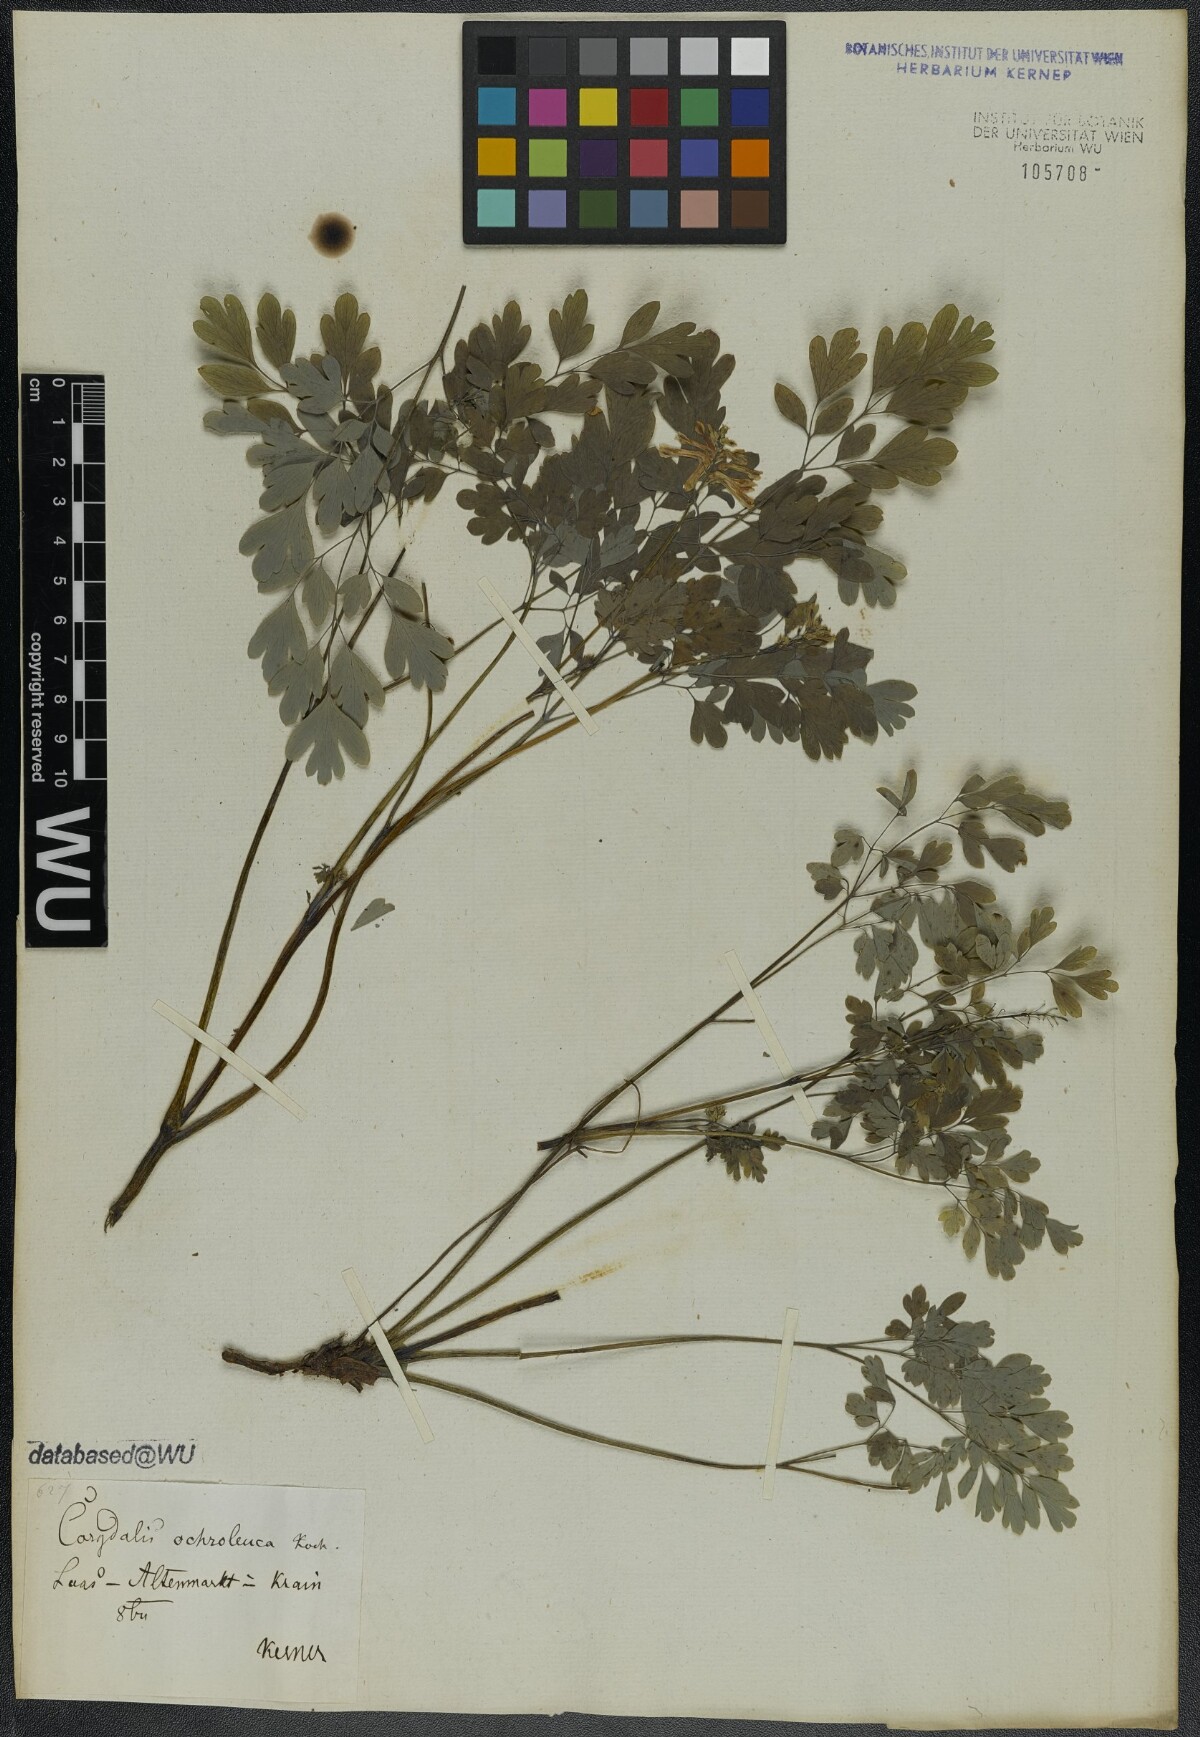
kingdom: Plantae
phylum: Tracheophyta
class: Magnoliopsida
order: Ranunculales
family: Papaveraceae
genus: Pseudofumaria
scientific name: Pseudofumaria alba
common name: Pale corydalis
